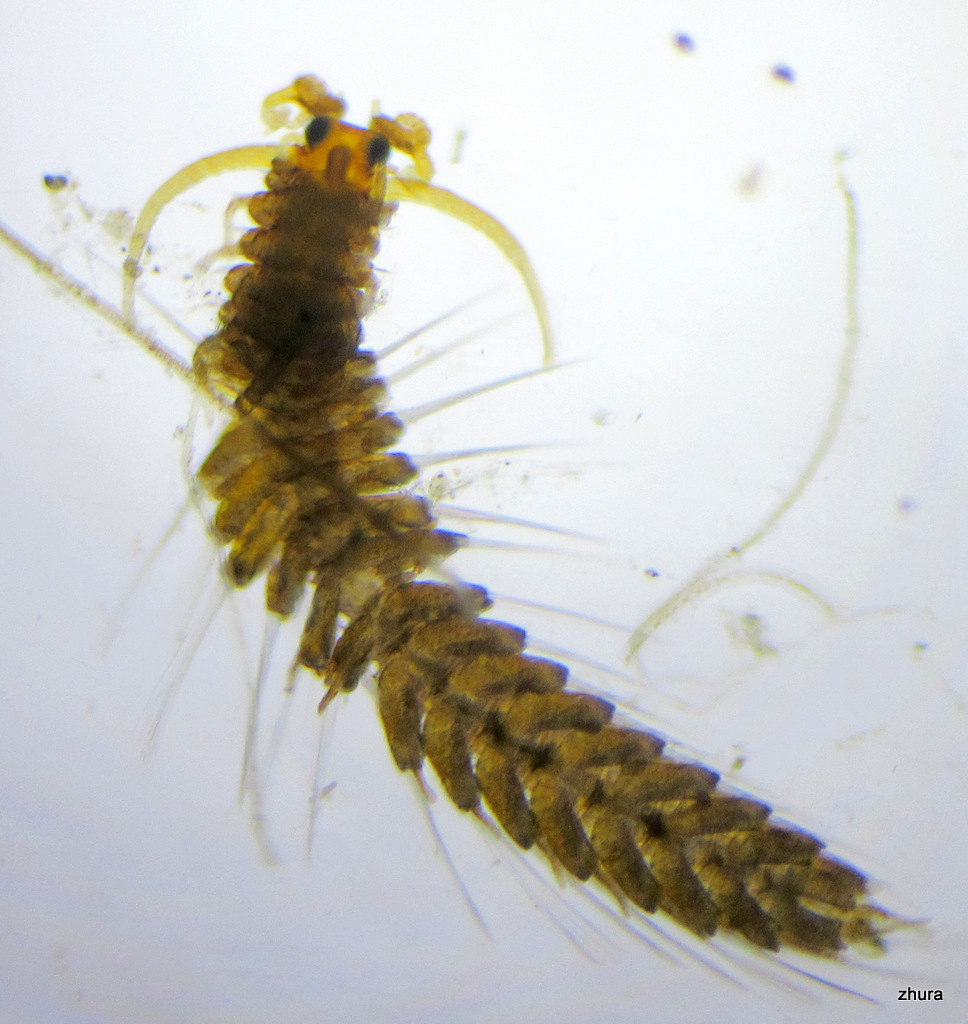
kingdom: Animalia
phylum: Annelida
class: Polychaeta
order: Phyllodocida
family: Syllidae
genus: Proceraea
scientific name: Proceraea prismatica
